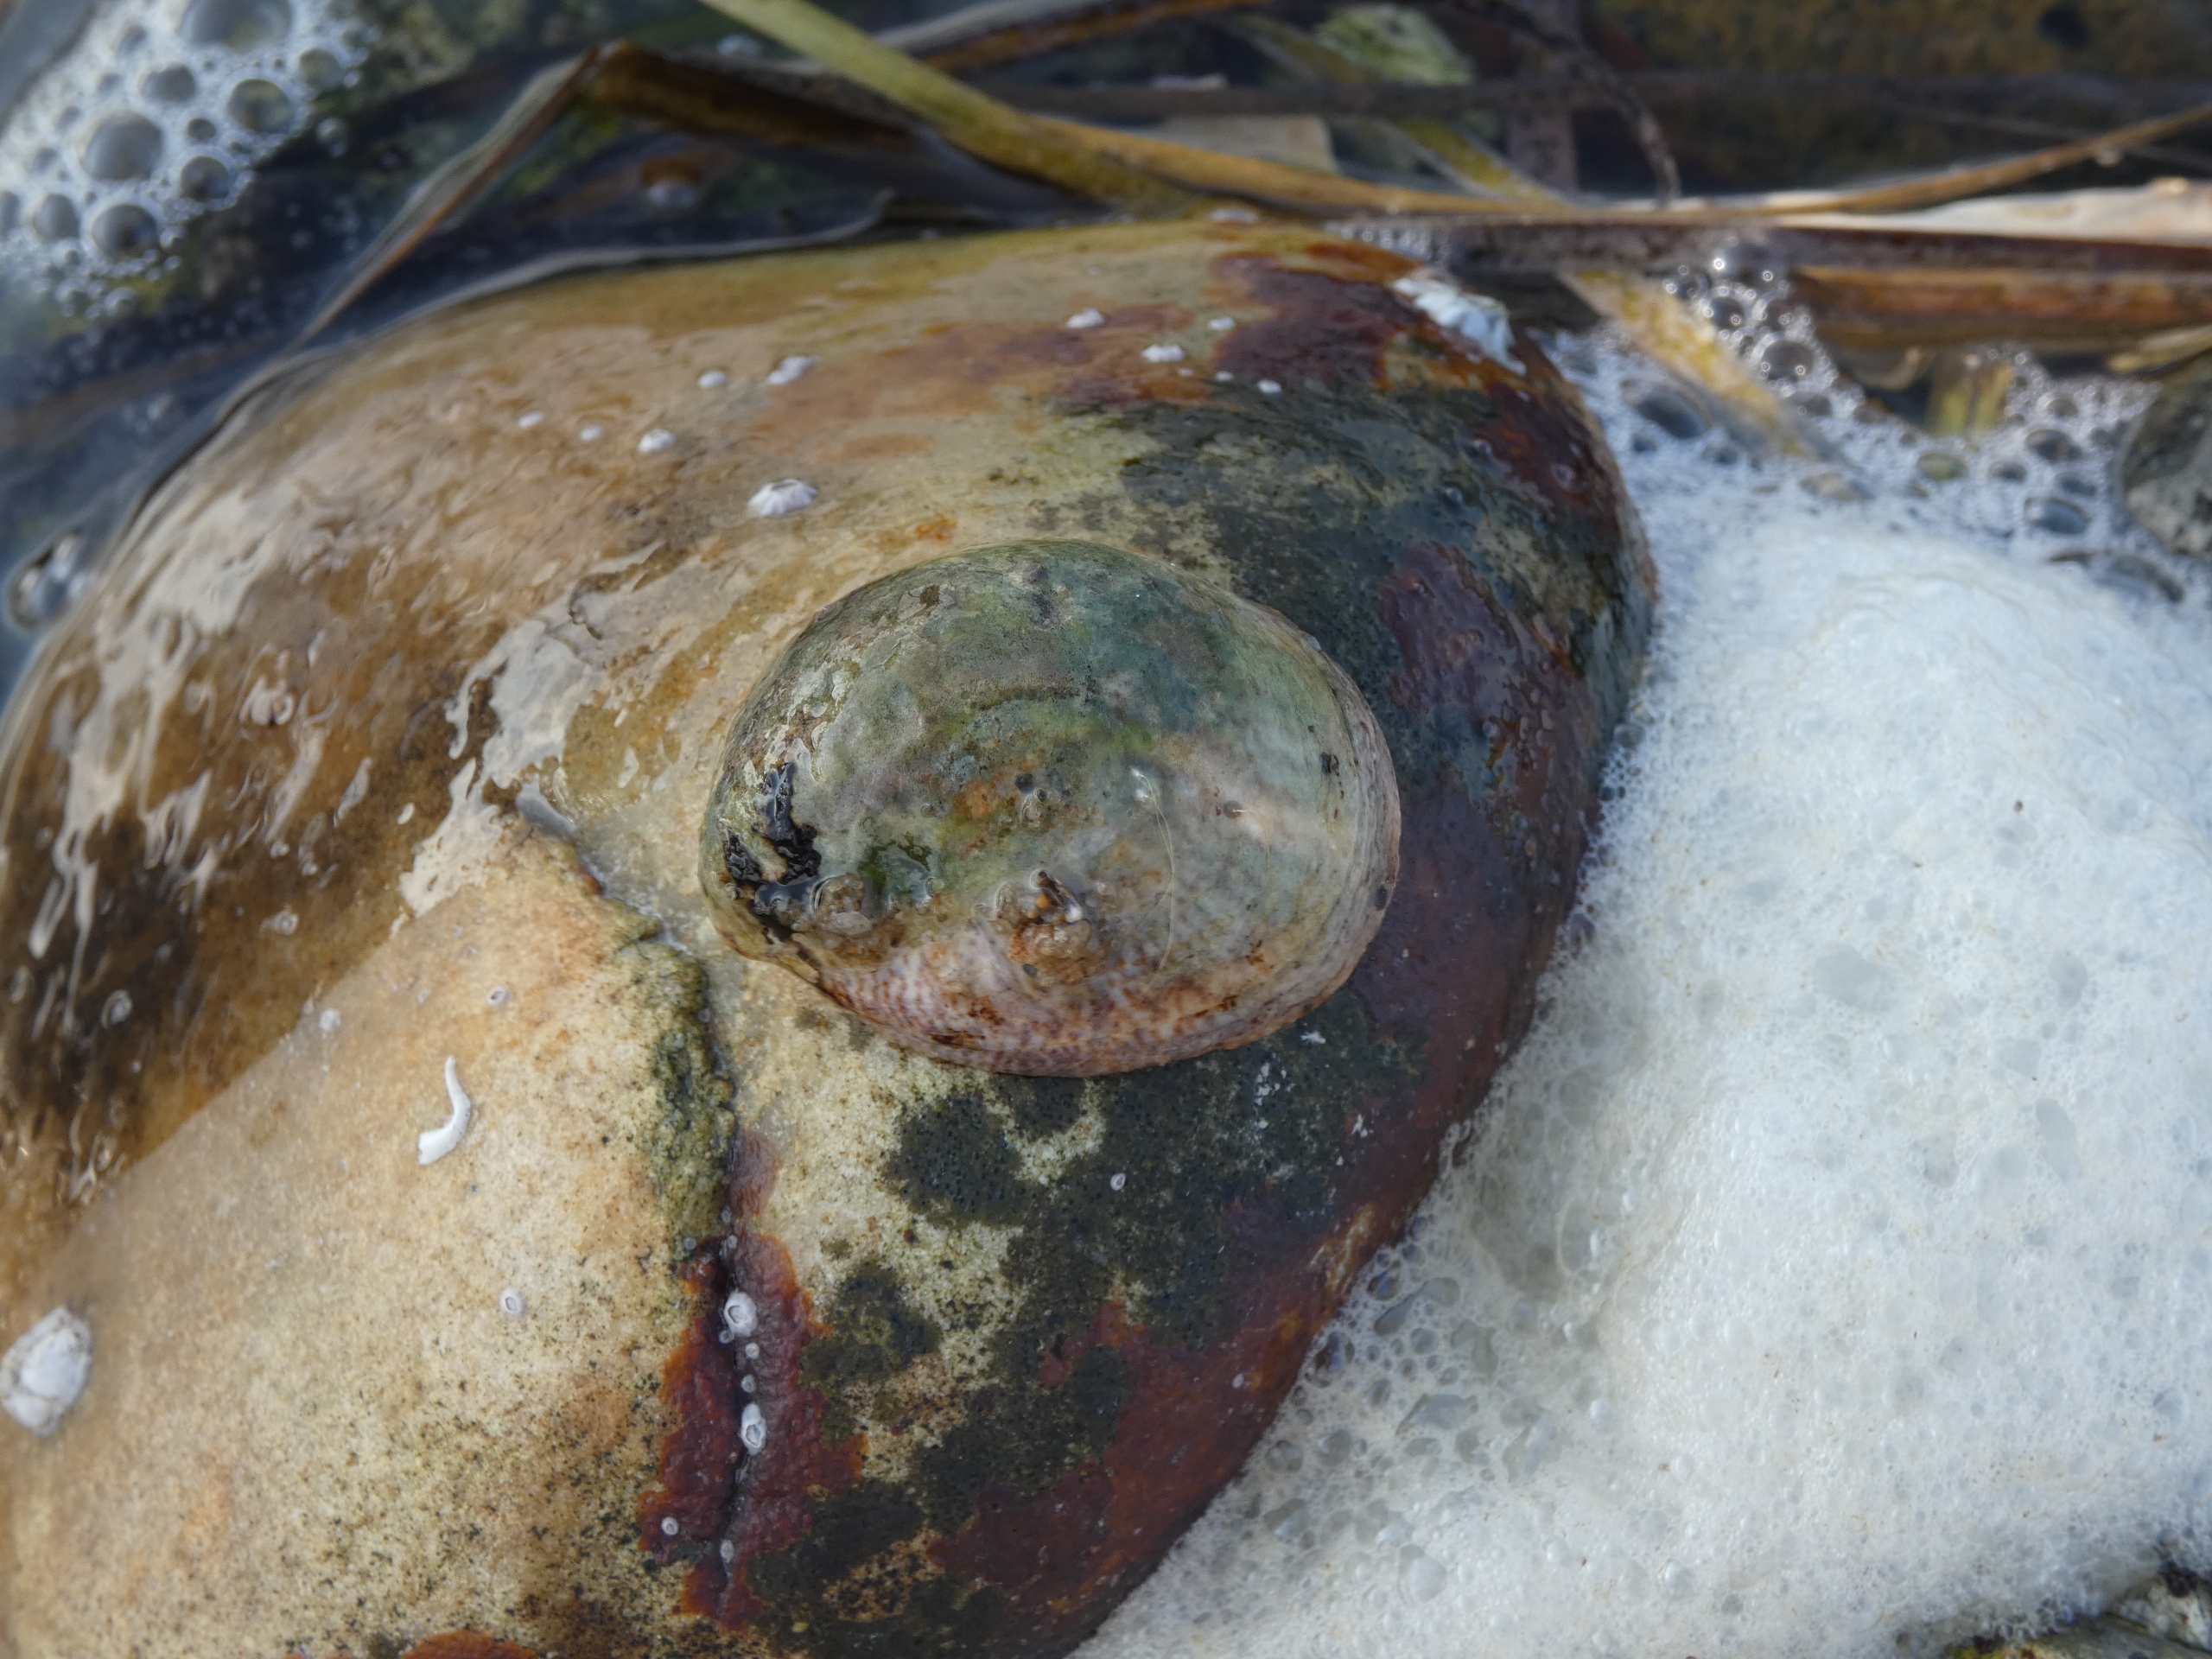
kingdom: Animalia
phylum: Mollusca
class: Gastropoda
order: Littorinimorpha
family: Calyptraeidae
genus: Crepidula
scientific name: Crepidula fornicata
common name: Tøffelsnegl
